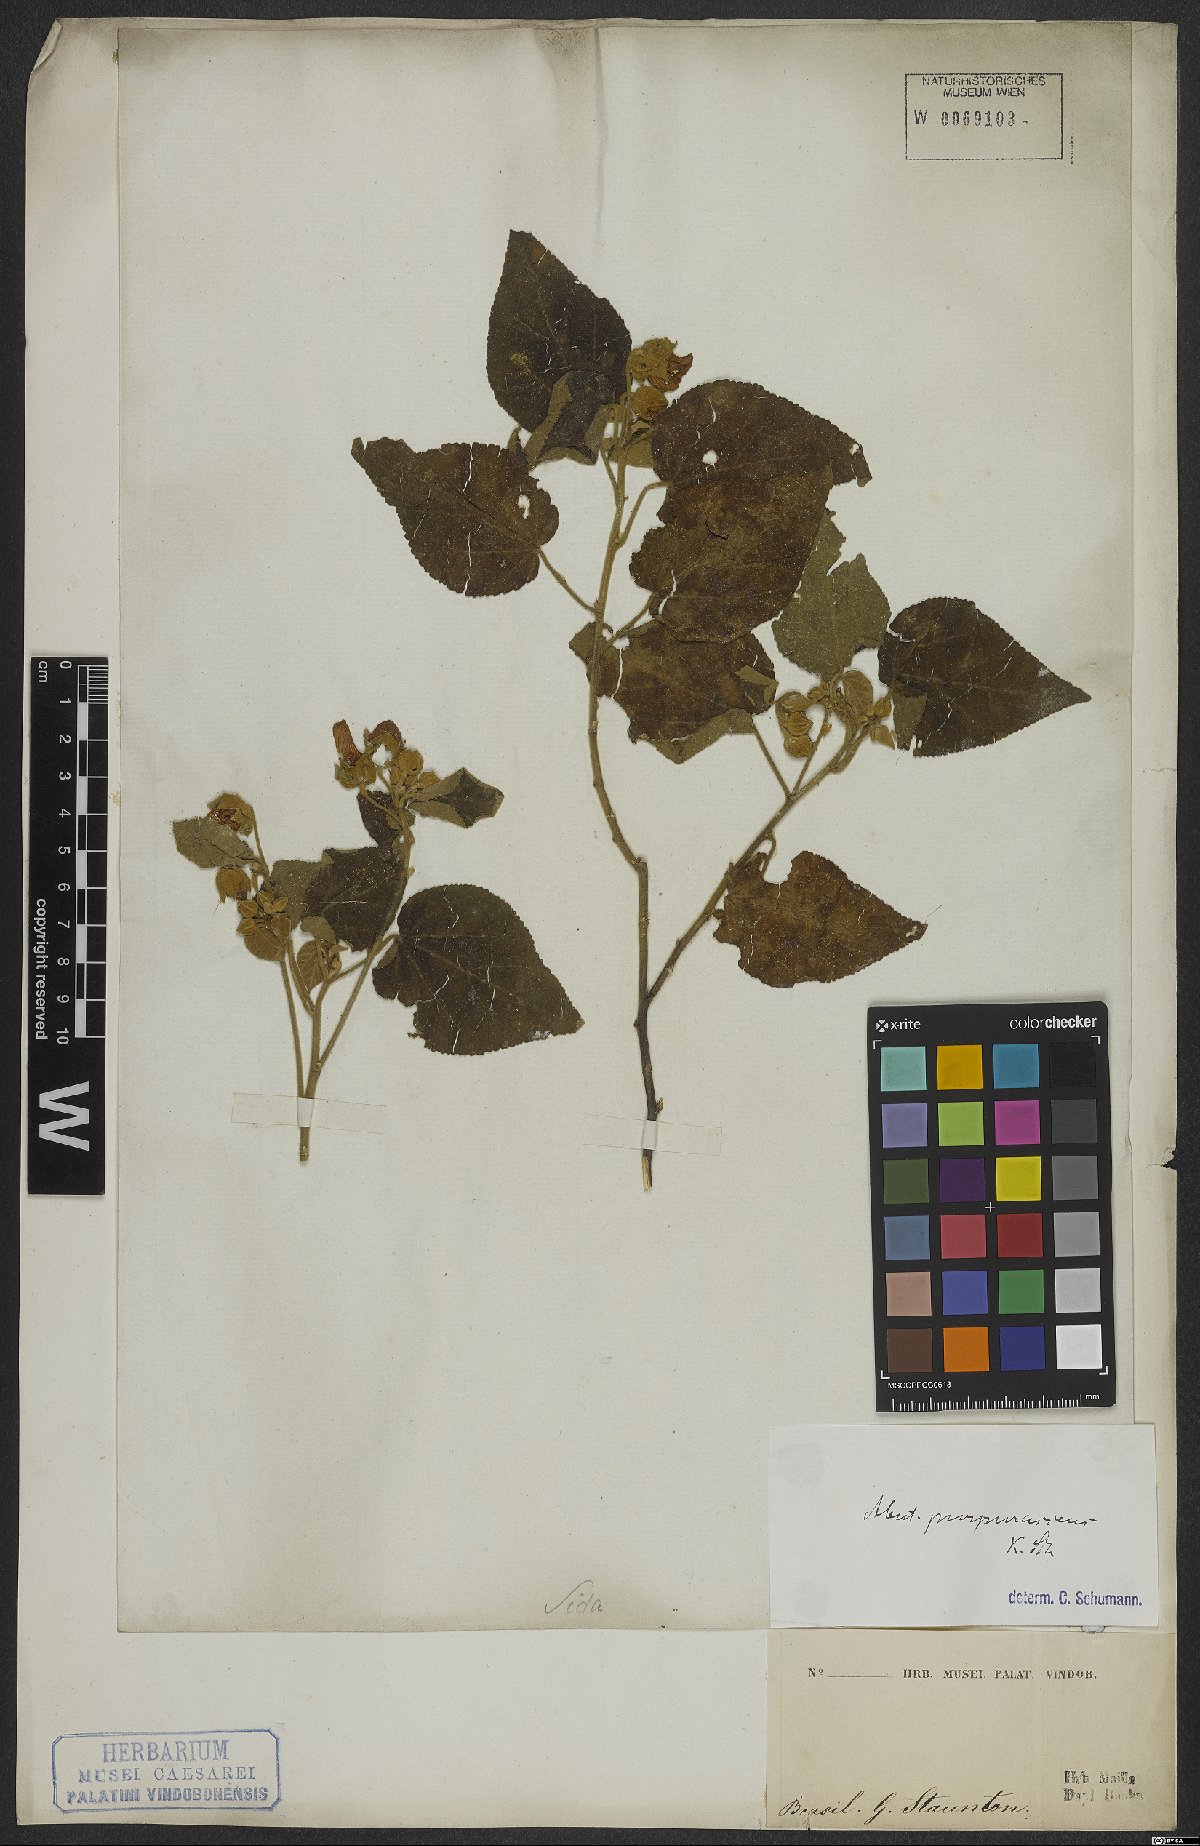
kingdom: Plantae
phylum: Tracheophyta
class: Magnoliopsida
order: Malvales
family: Malvaceae
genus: Bakeridesia
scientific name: Bakeridesia esculenta
